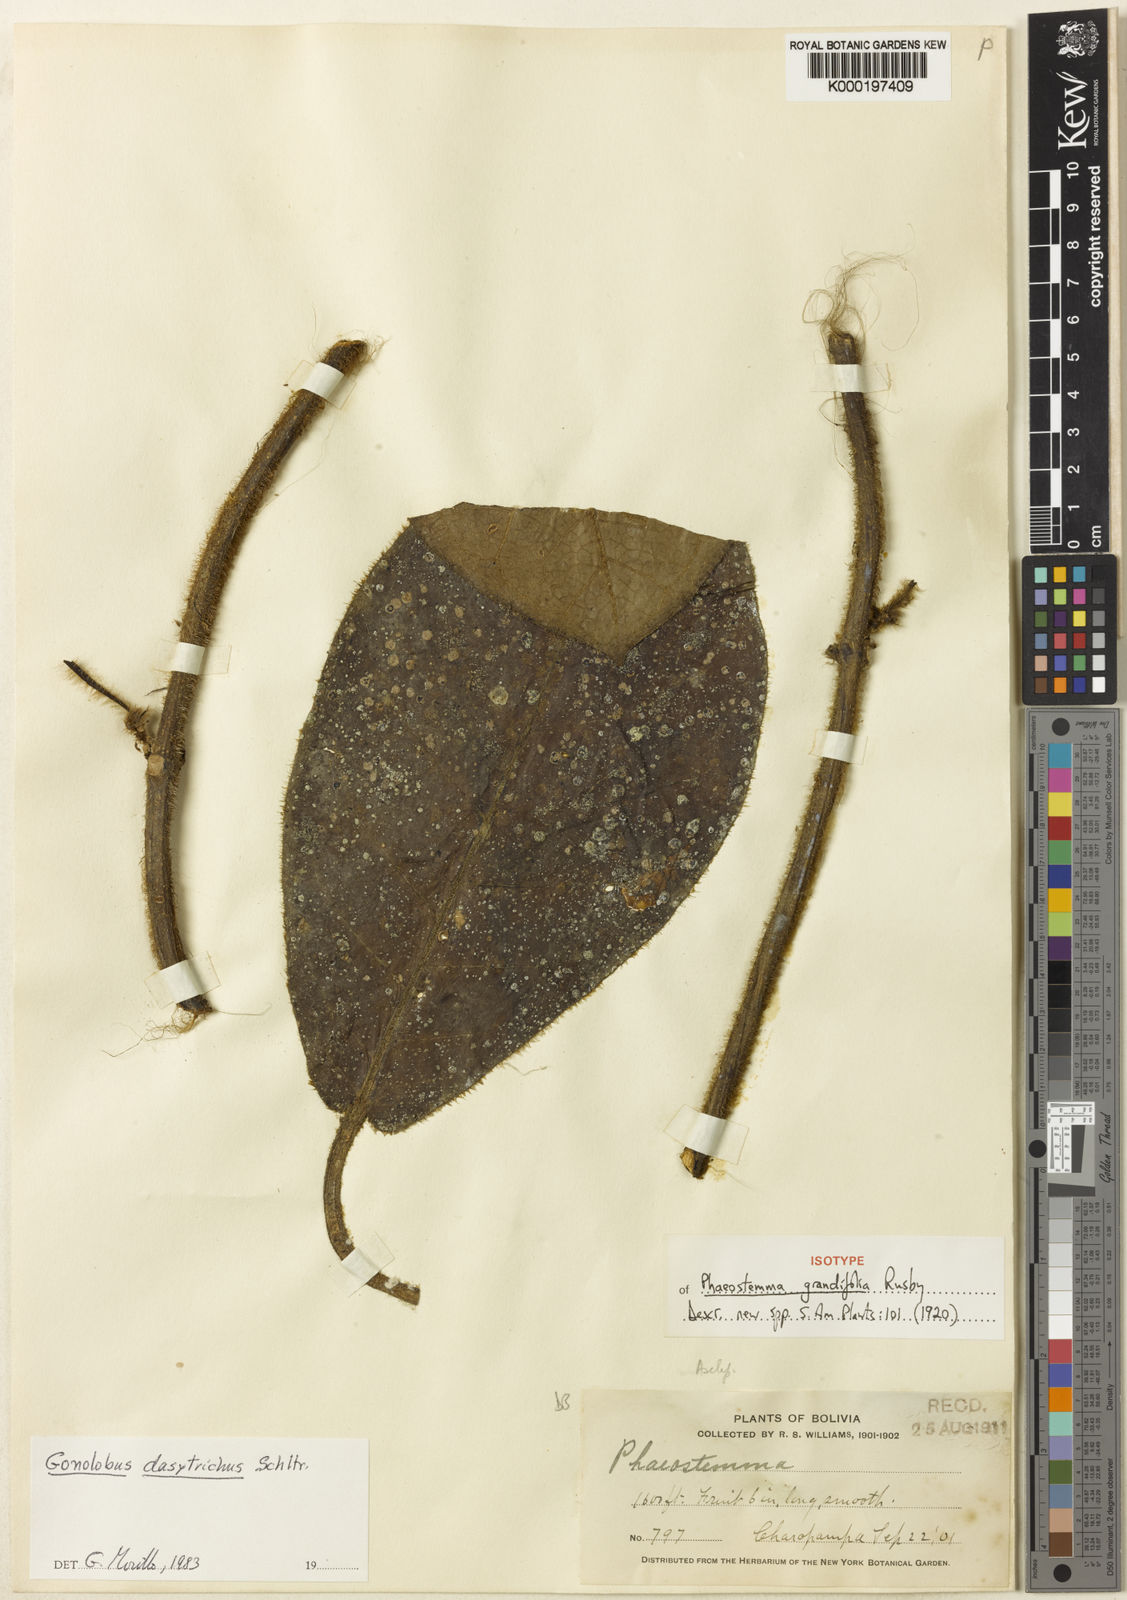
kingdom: Plantae
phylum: Tracheophyta
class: Magnoliopsida
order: Gentianales
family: Apocynaceae
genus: Pruskortizia
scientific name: Pruskortizia dasytricha
